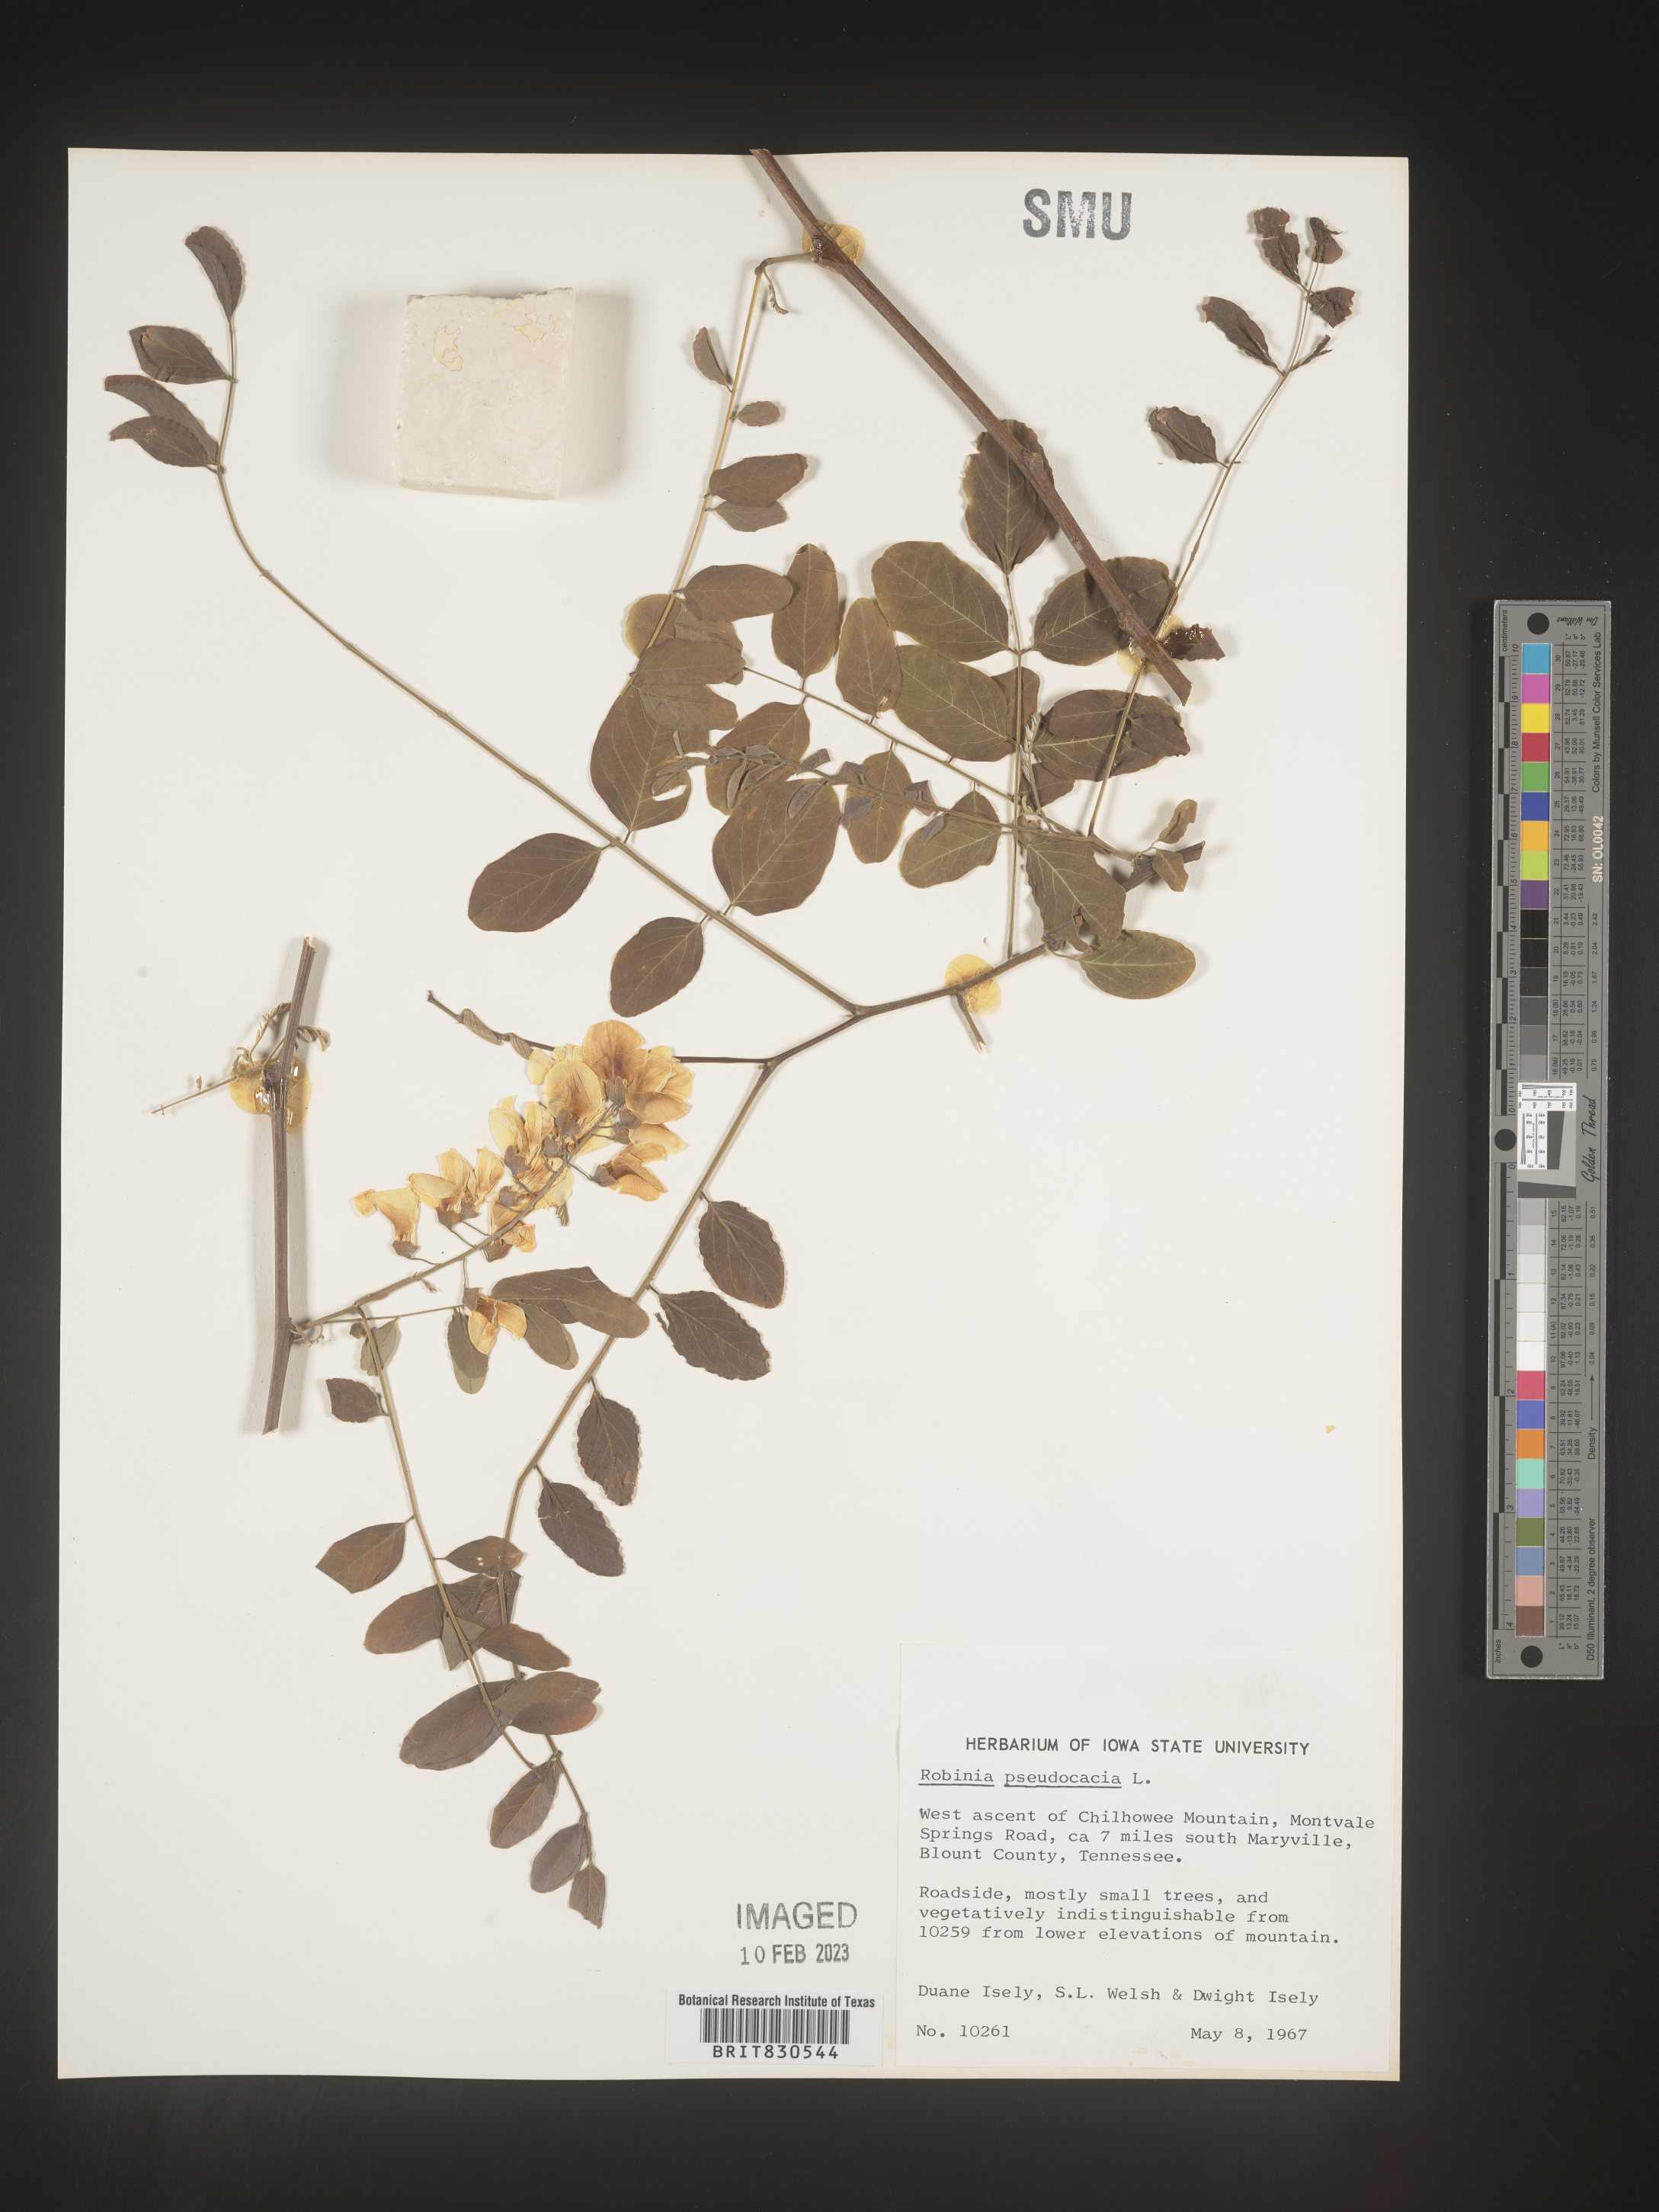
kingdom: Plantae
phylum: Tracheophyta
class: Magnoliopsida
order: Fabales
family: Fabaceae
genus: Robinia
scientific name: Robinia pseudoacacia
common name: Black locust
